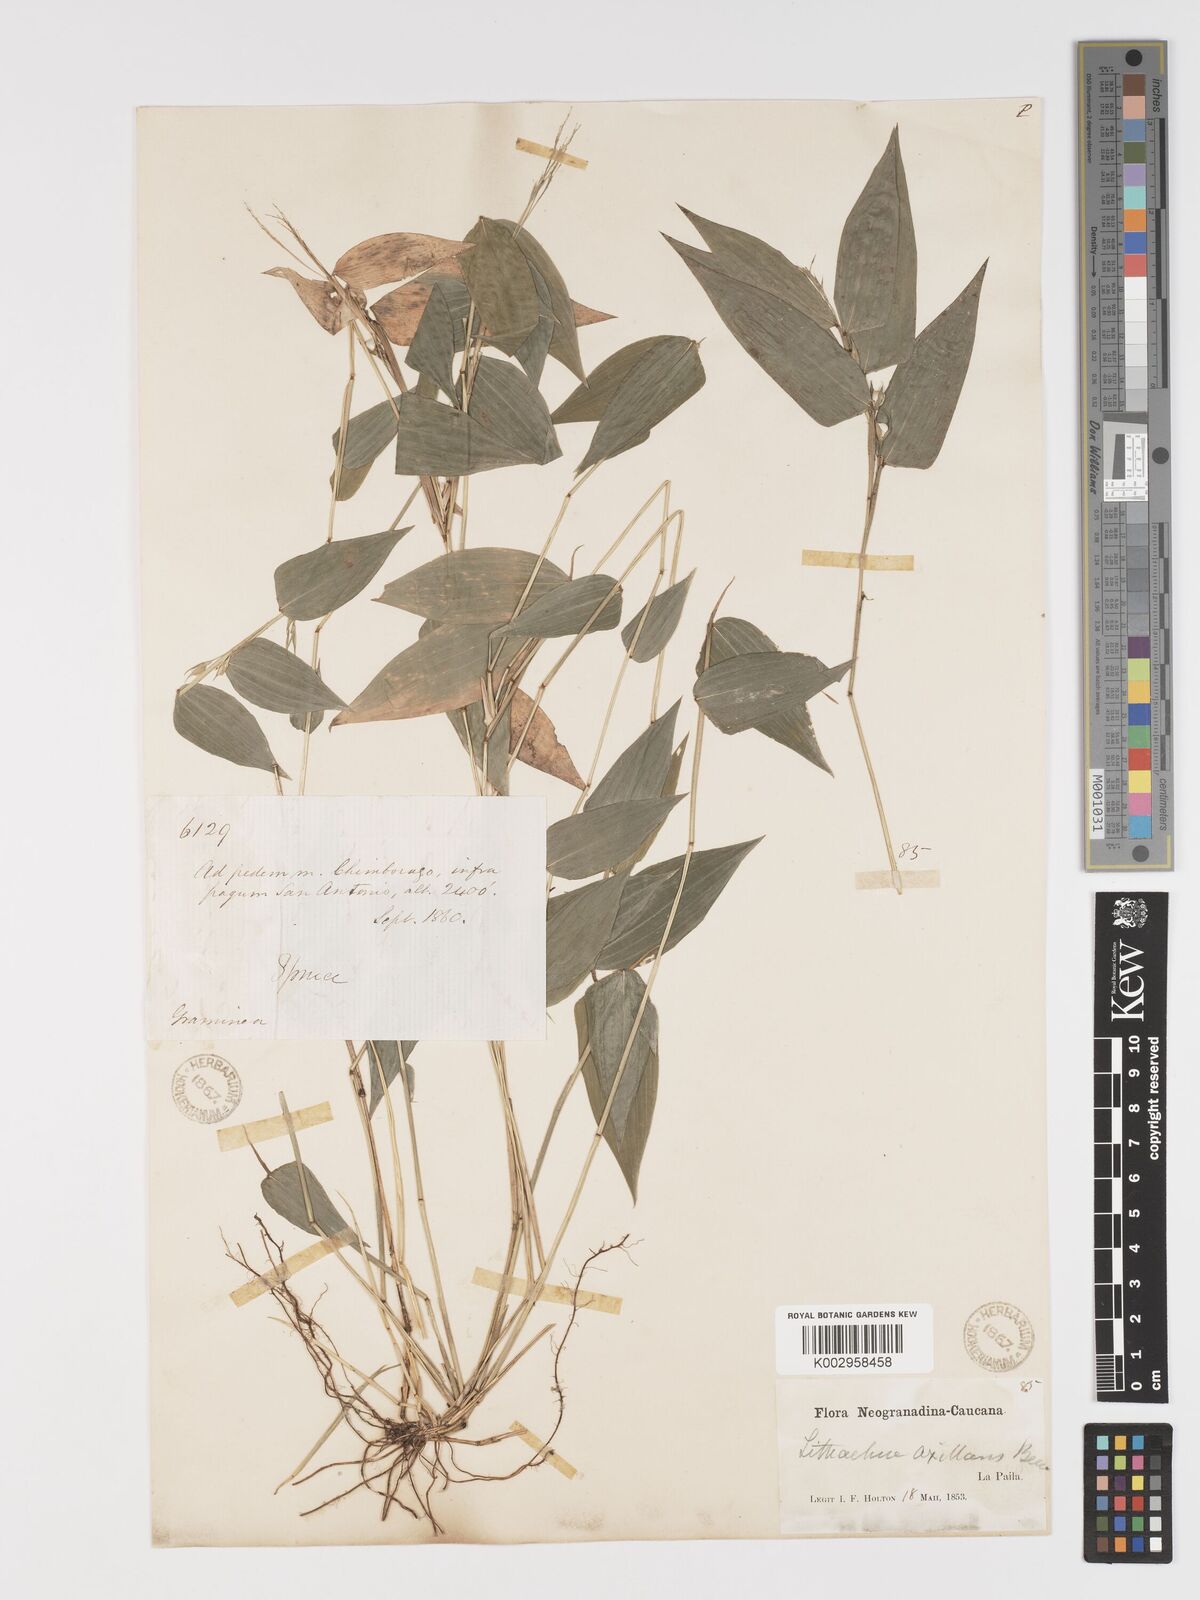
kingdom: Plantae
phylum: Tracheophyta
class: Liliopsida
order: Poales
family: Poaceae
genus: Lithachne
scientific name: Lithachne pauciflora
